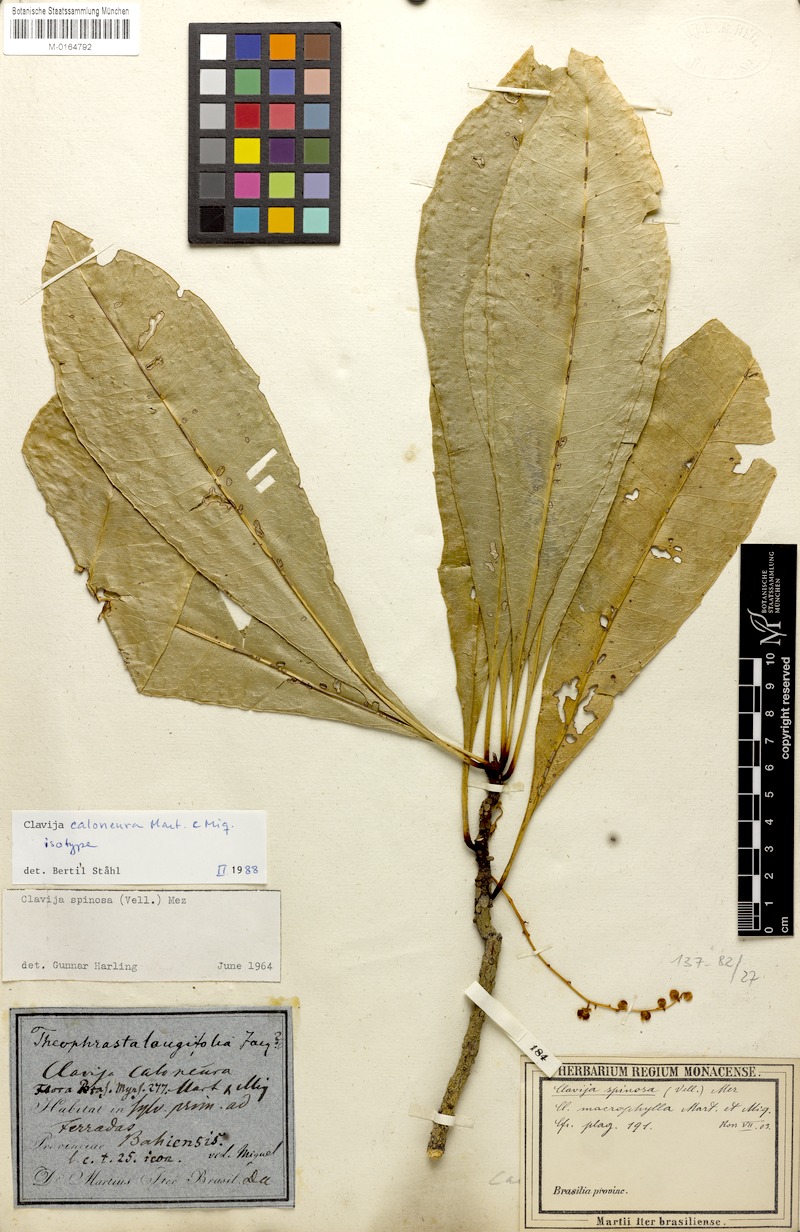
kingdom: Plantae
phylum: Tracheophyta
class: Magnoliopsida
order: Ericales
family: Primulaceae
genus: Clavija
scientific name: Clavija caloneura
